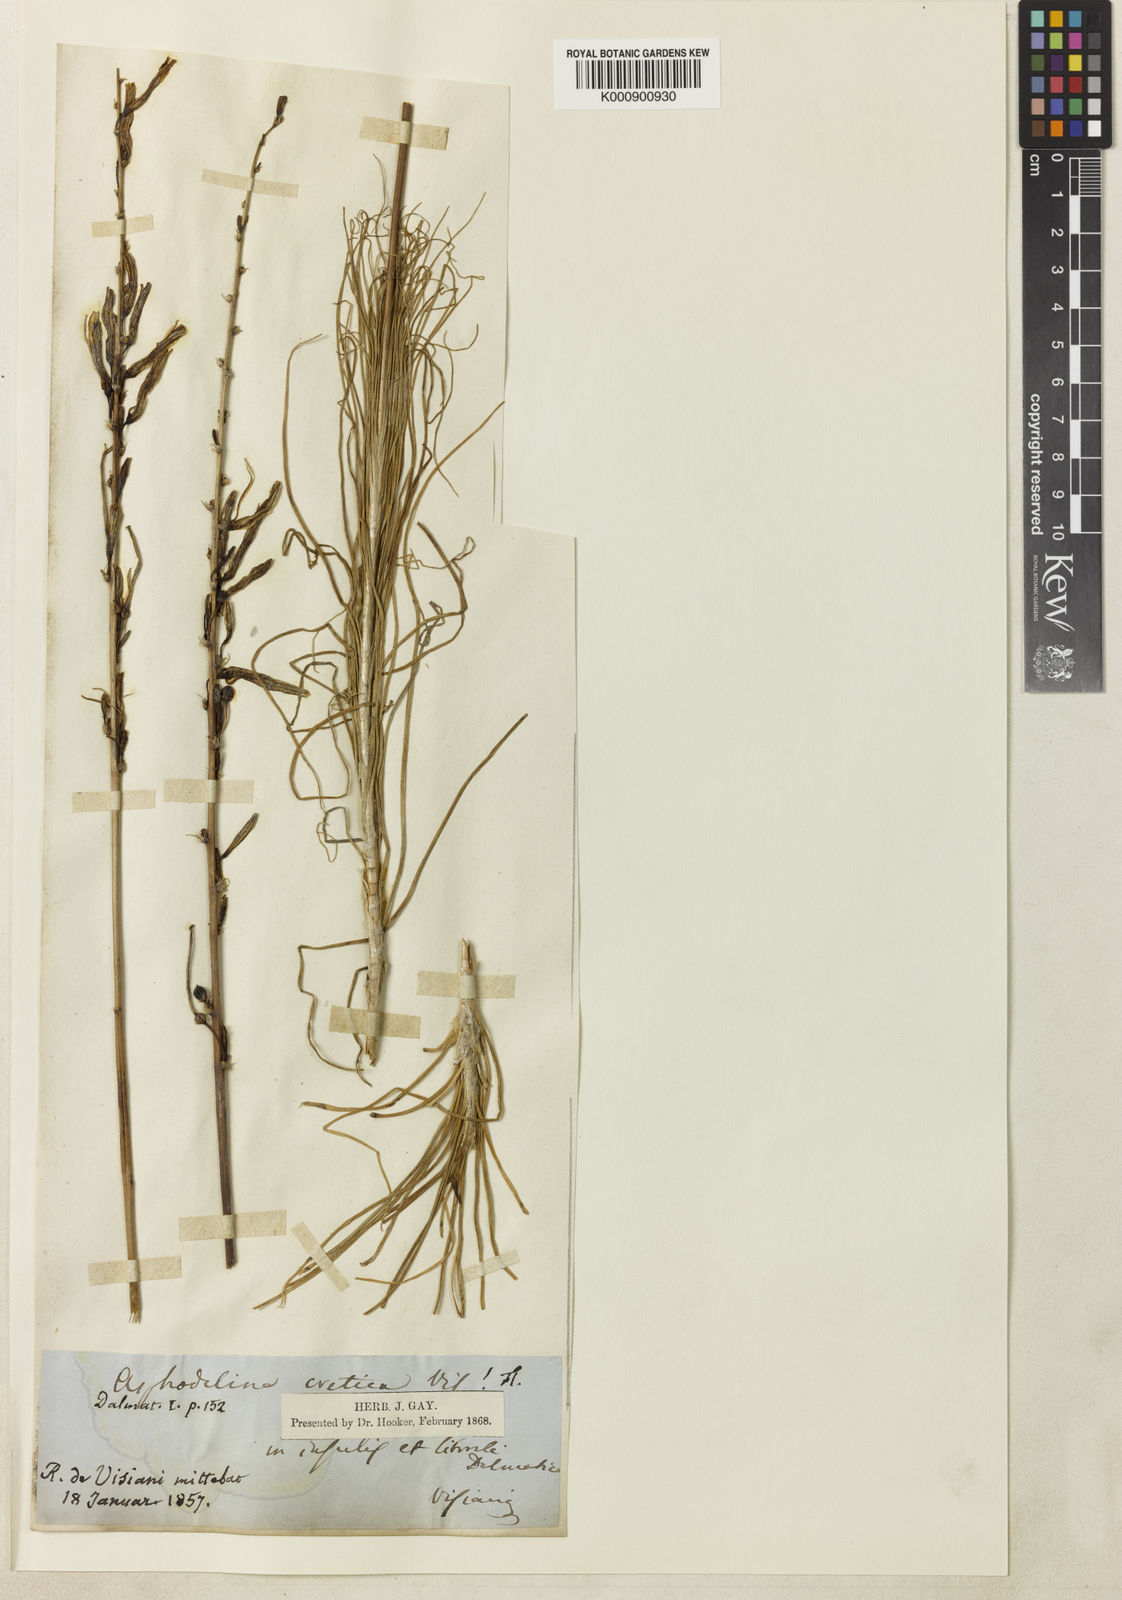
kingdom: Plantae
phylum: Tracheophyta
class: Liliopsida
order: Asparagales
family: Asphodelaceae
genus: Asphodeline
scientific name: Asphodeline liburnica
